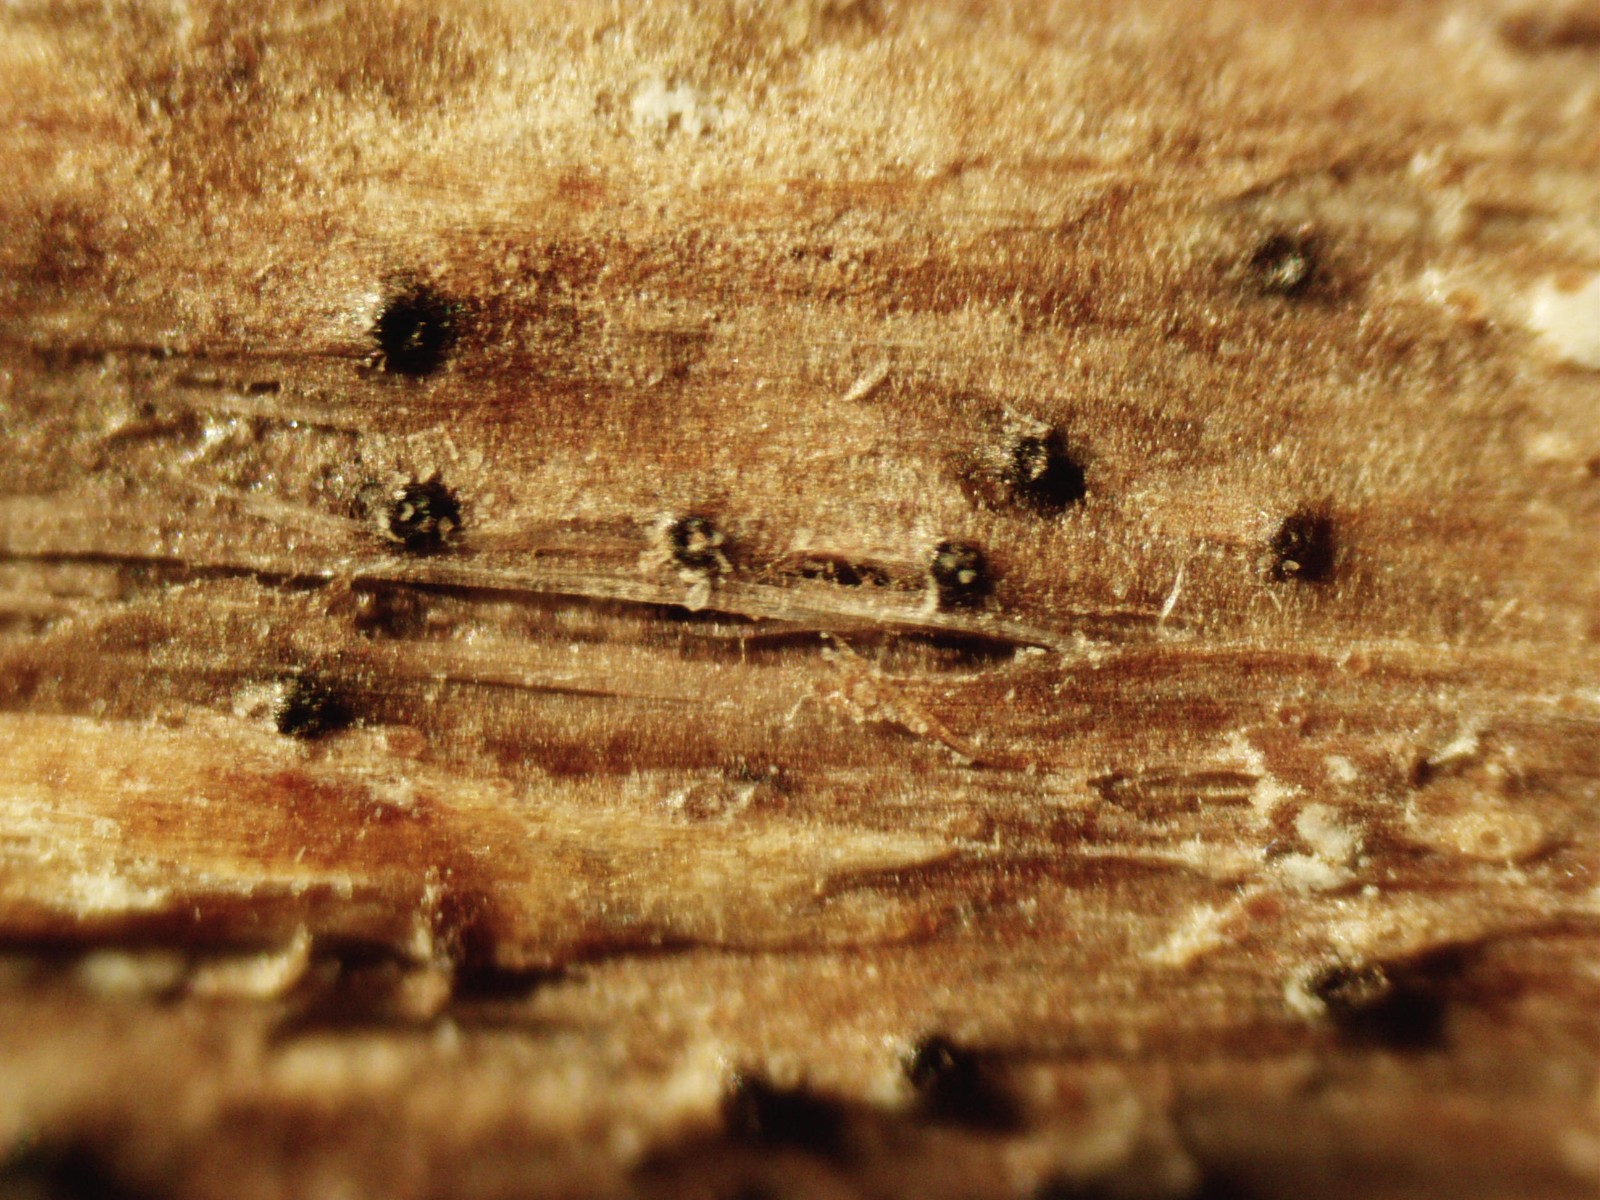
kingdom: Fungi
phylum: Ascomycota
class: Dothideomycetes
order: Pleosporales
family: Leptosphaeriaceae
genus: Leptosphaeria
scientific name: Leptosphaeria acuta
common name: spids kulkegle
